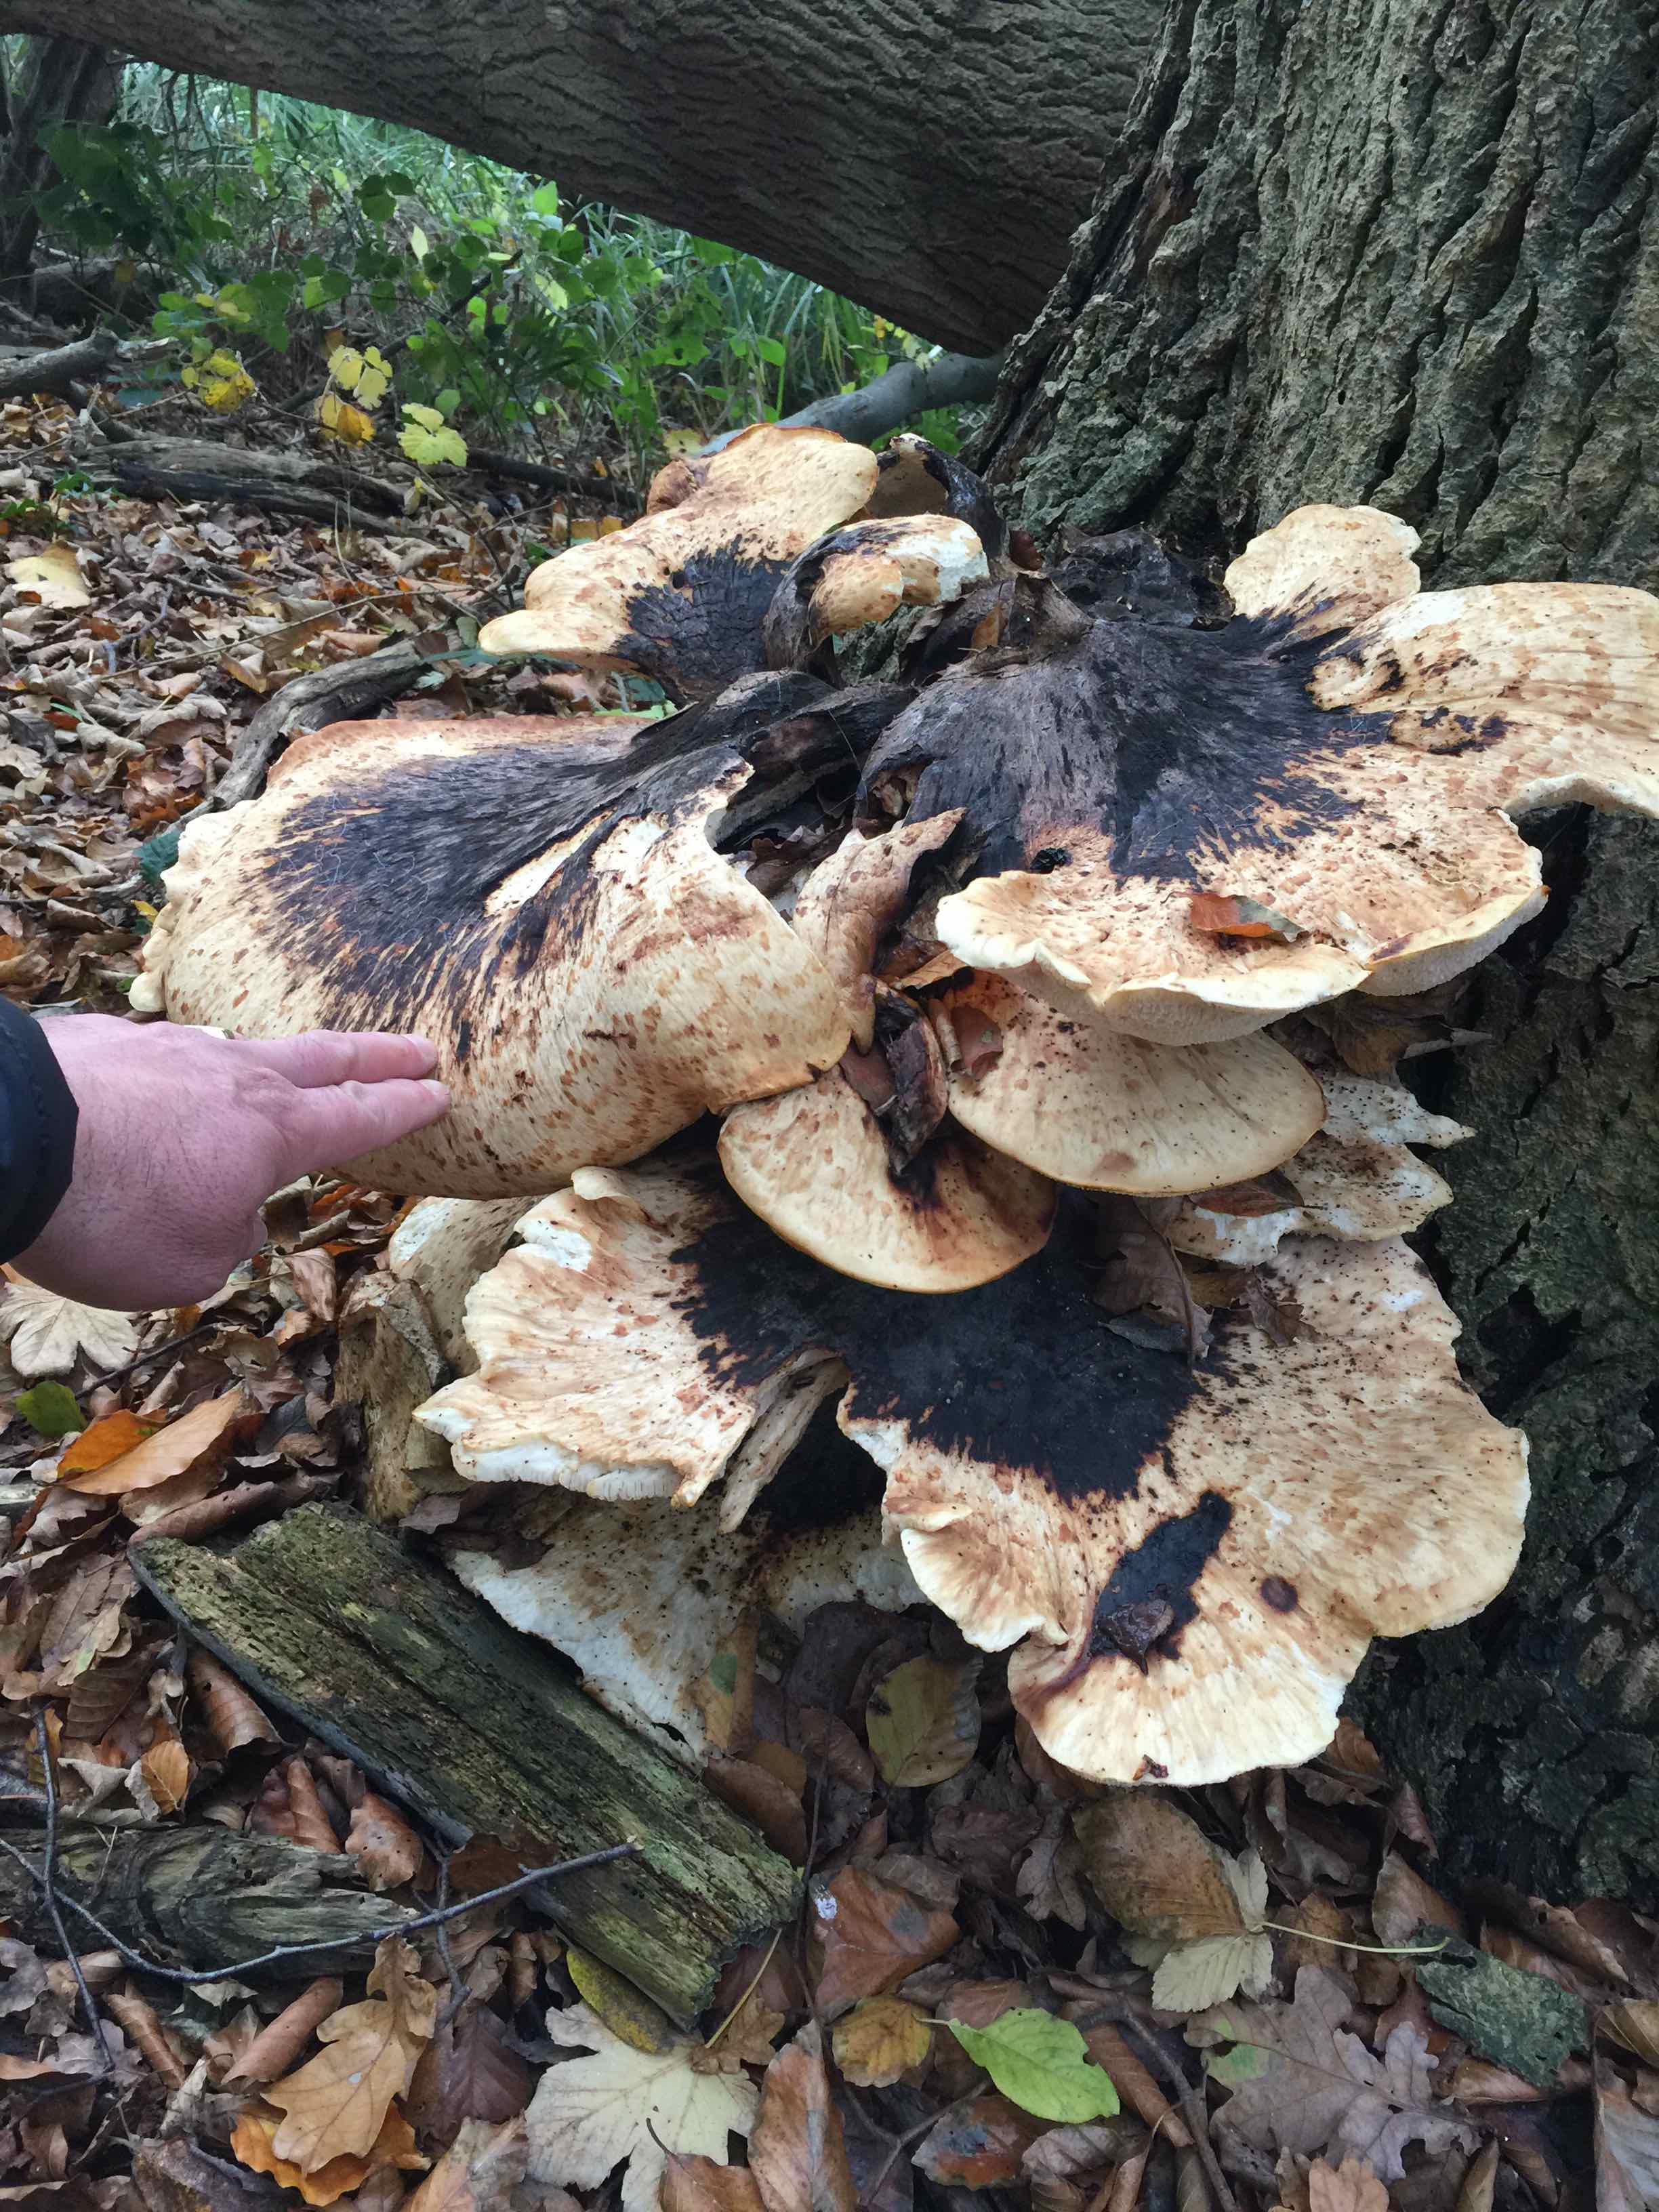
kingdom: Fungi
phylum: Basidiomycota
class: Agaricomycetes
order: Polyporales
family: Polyporaceae
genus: Cerioporus
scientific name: Cerioporus squamosus
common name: skællet stilkporesvamp
